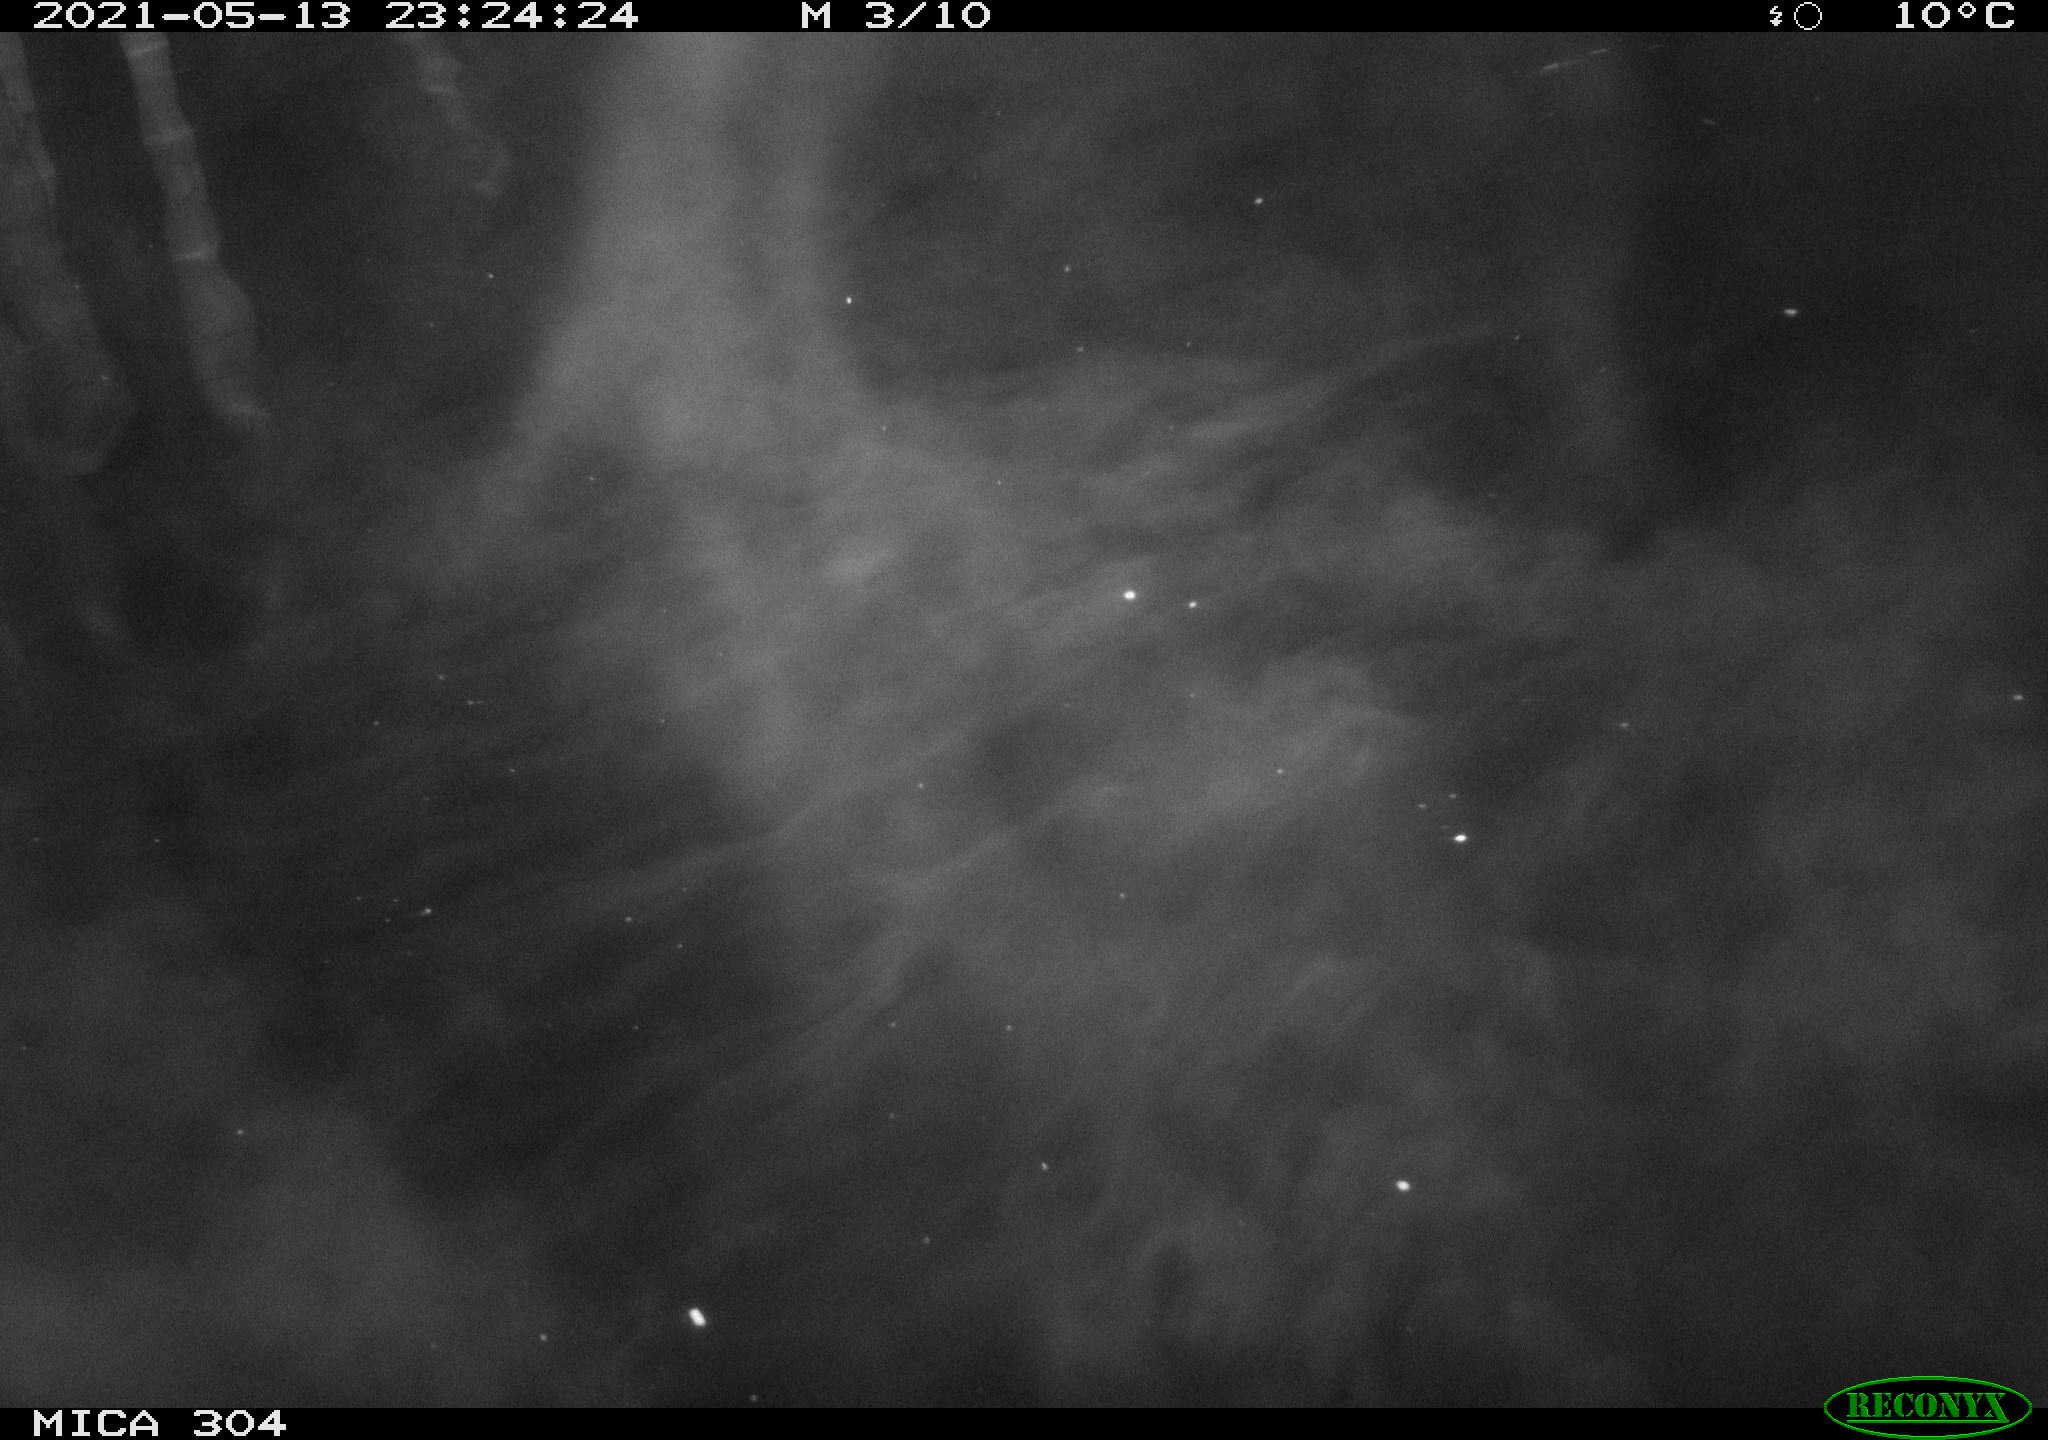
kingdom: Animalia
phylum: Chordata
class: Mammalia
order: Rodentia
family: Cricetidae
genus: Ondatra
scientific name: Ondatra zibethicus
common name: Muskrat
